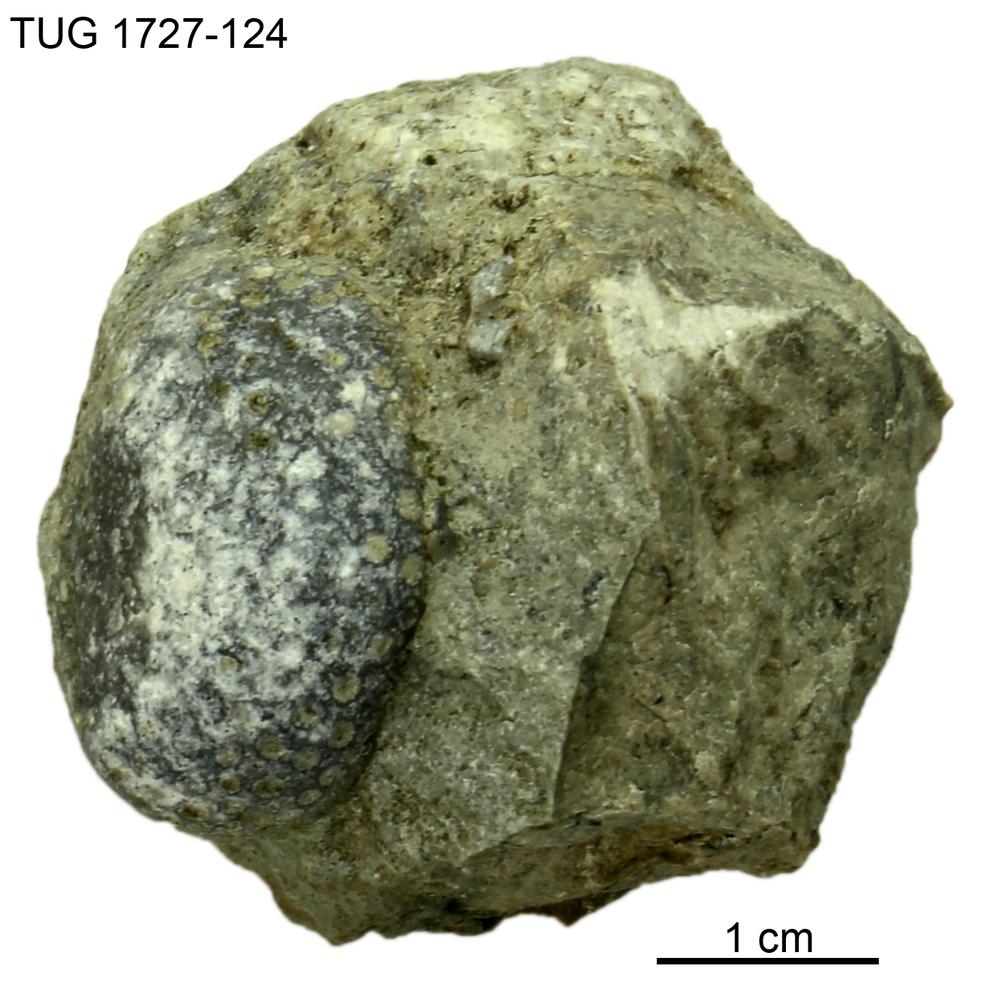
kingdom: Animalia
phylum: Xenacoelomorpha
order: Acoela
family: Proporidae
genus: Propora
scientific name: Propora
